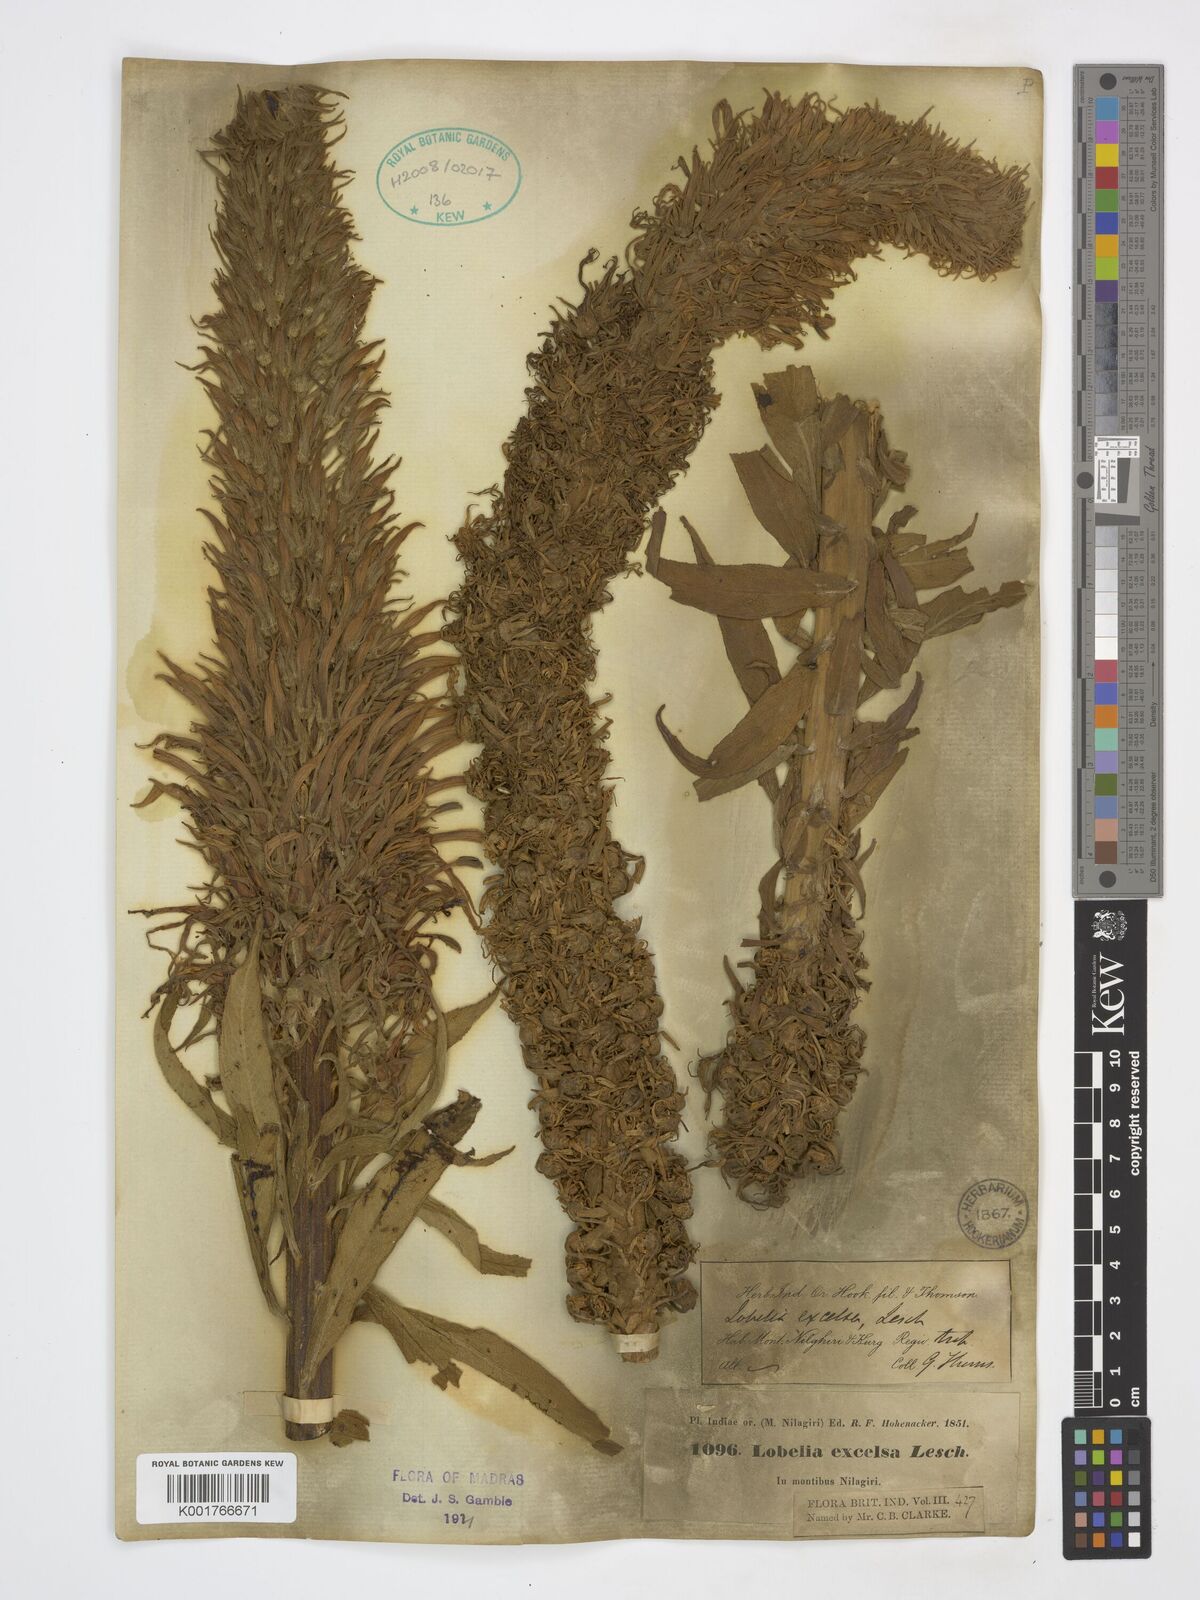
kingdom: Plantae
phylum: Tracheophyta
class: Magnoliopsida
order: Asterales
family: Campanulaceae
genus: Lobelia
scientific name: Lobelia excelsa
